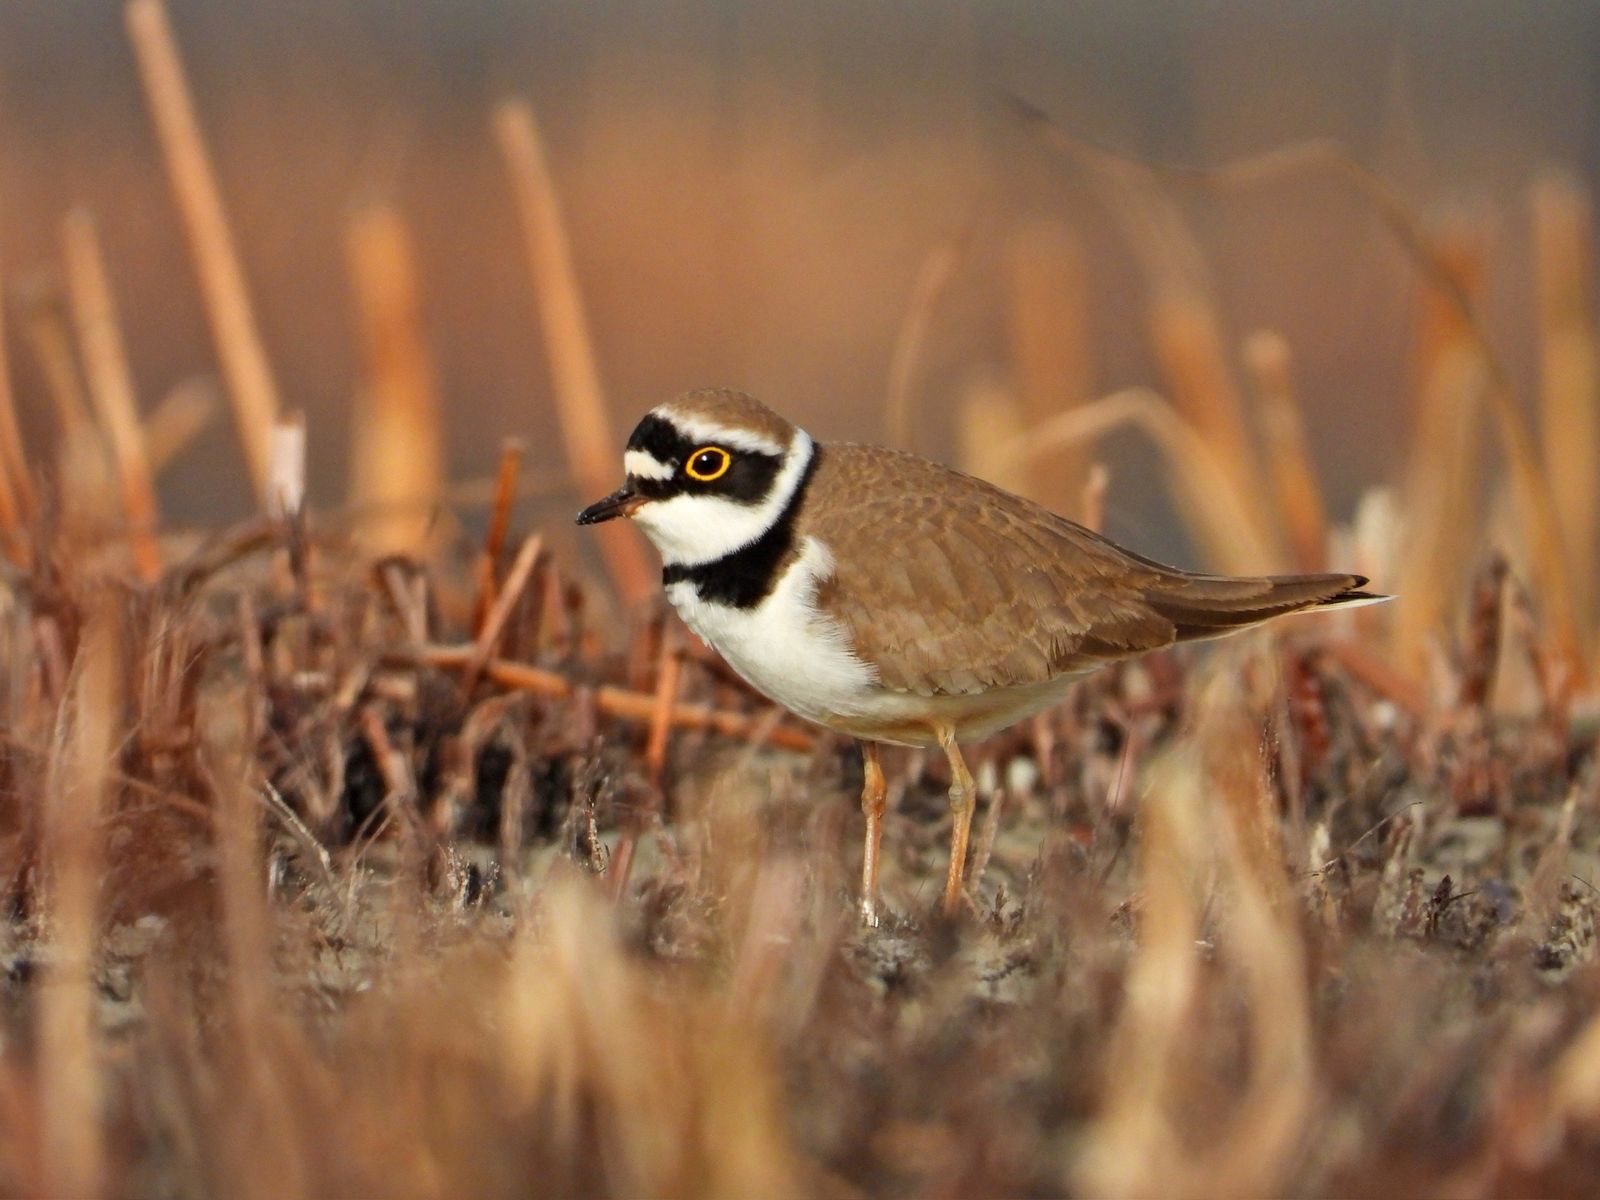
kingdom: Animalia
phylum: Chordata
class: Aves
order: Charadriiformes
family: Charadriidae
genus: Charadrius
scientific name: Charadrius dubius
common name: Little ringed plover
